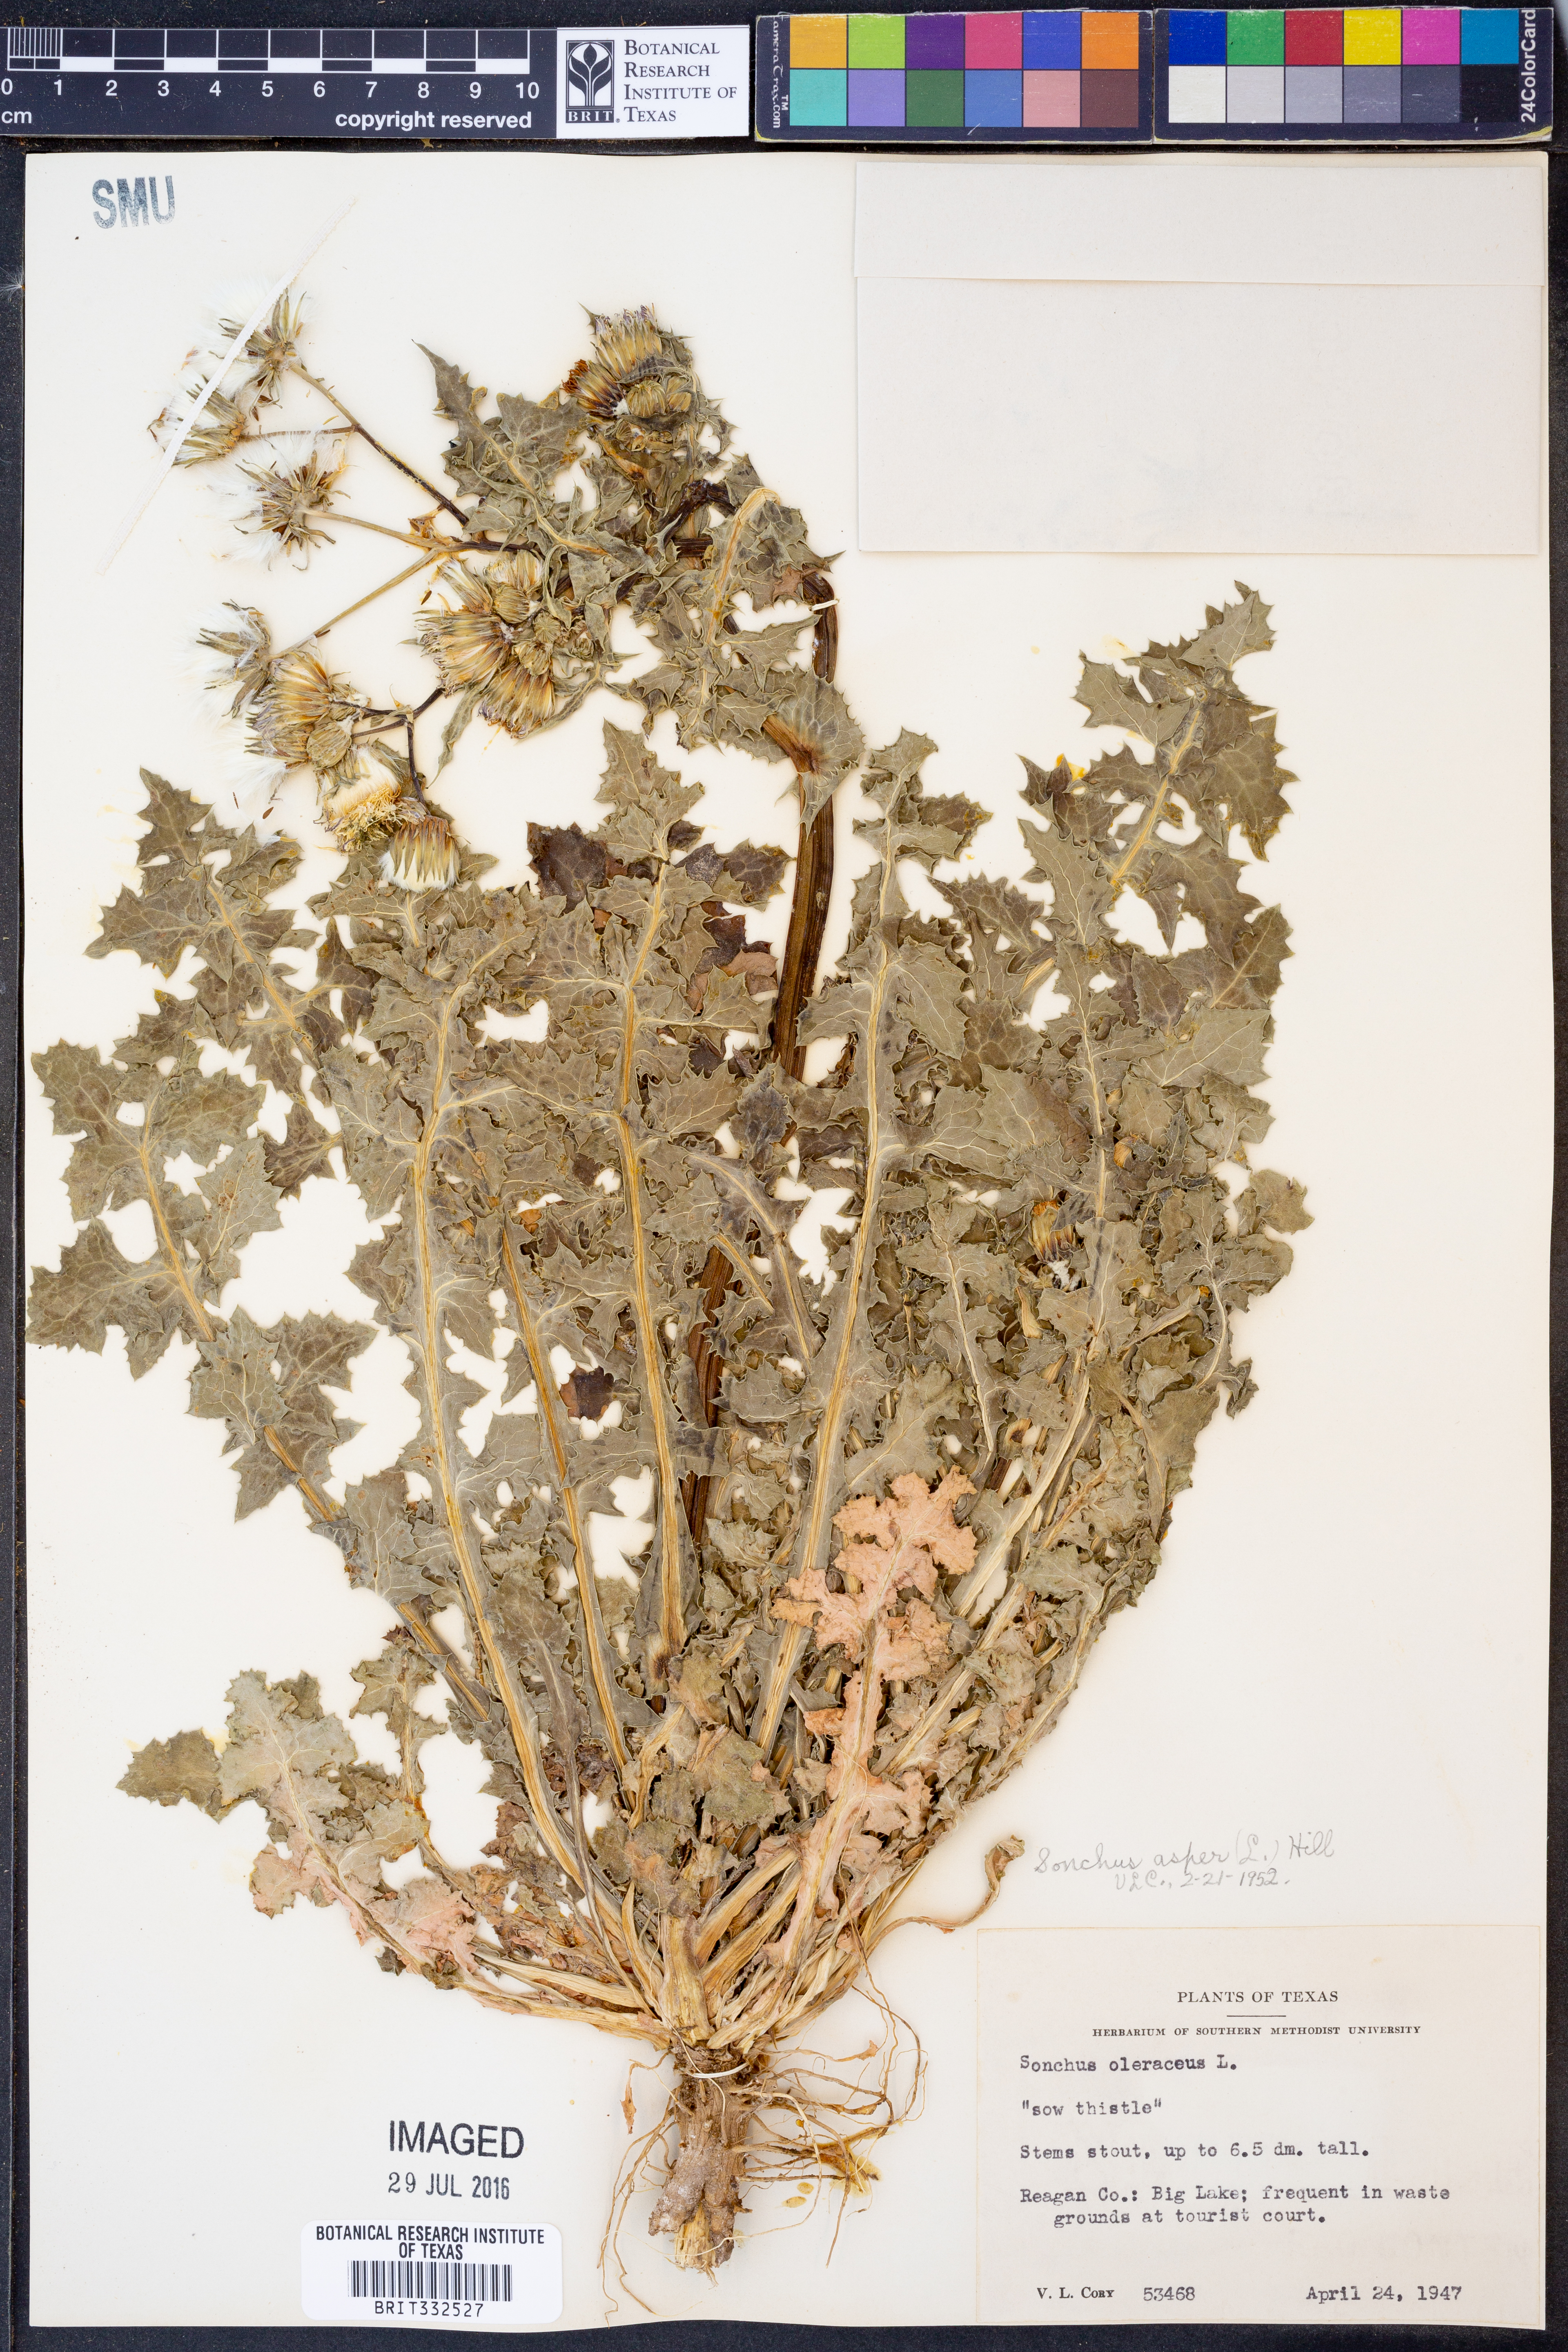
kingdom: Plantae
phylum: Tracheophyta
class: Magnoliopsida
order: Asterales
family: Asteraceae
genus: Sonchus
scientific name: Sonchus asper
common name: Prickly sow-thistle
